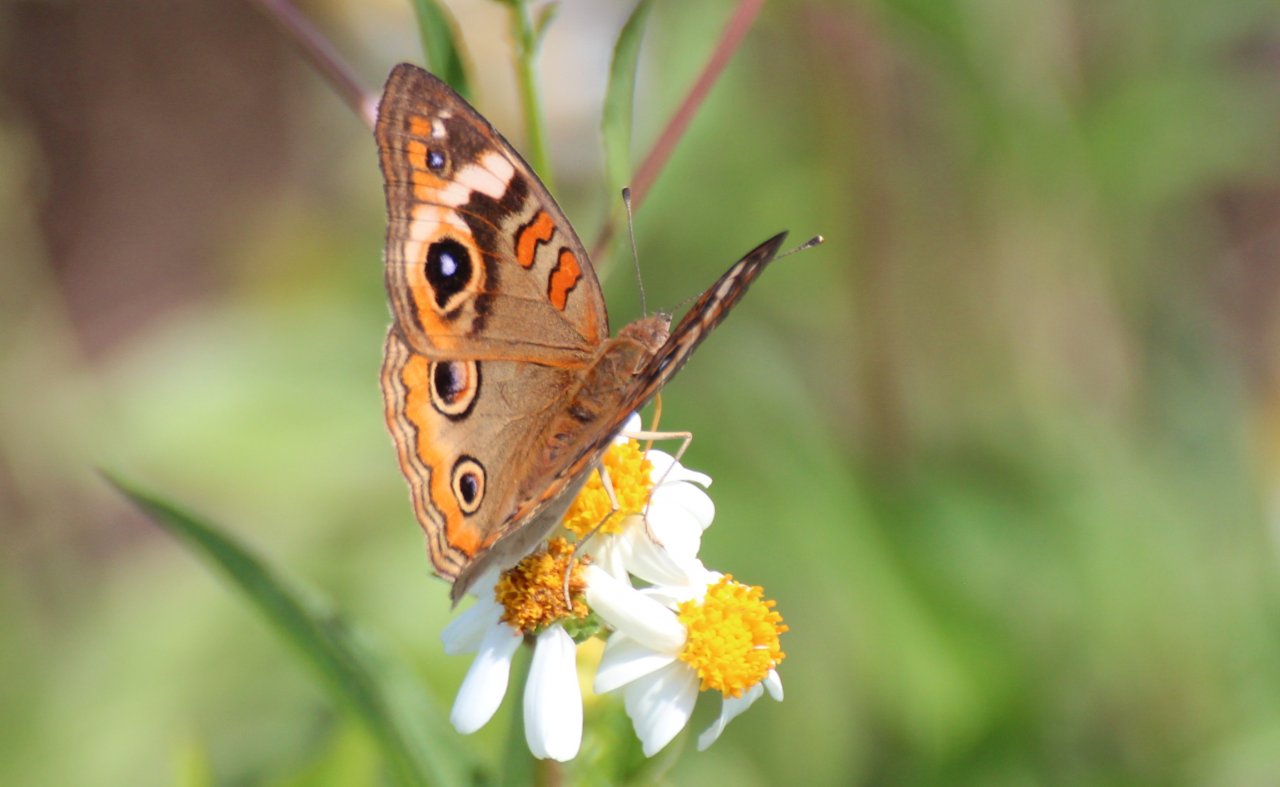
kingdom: Animalia
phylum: Arthropoda
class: Insecta
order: Lepidoptera
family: Nymphalidae
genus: Junonia
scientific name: Junonia coenia
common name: Common Buckeye
